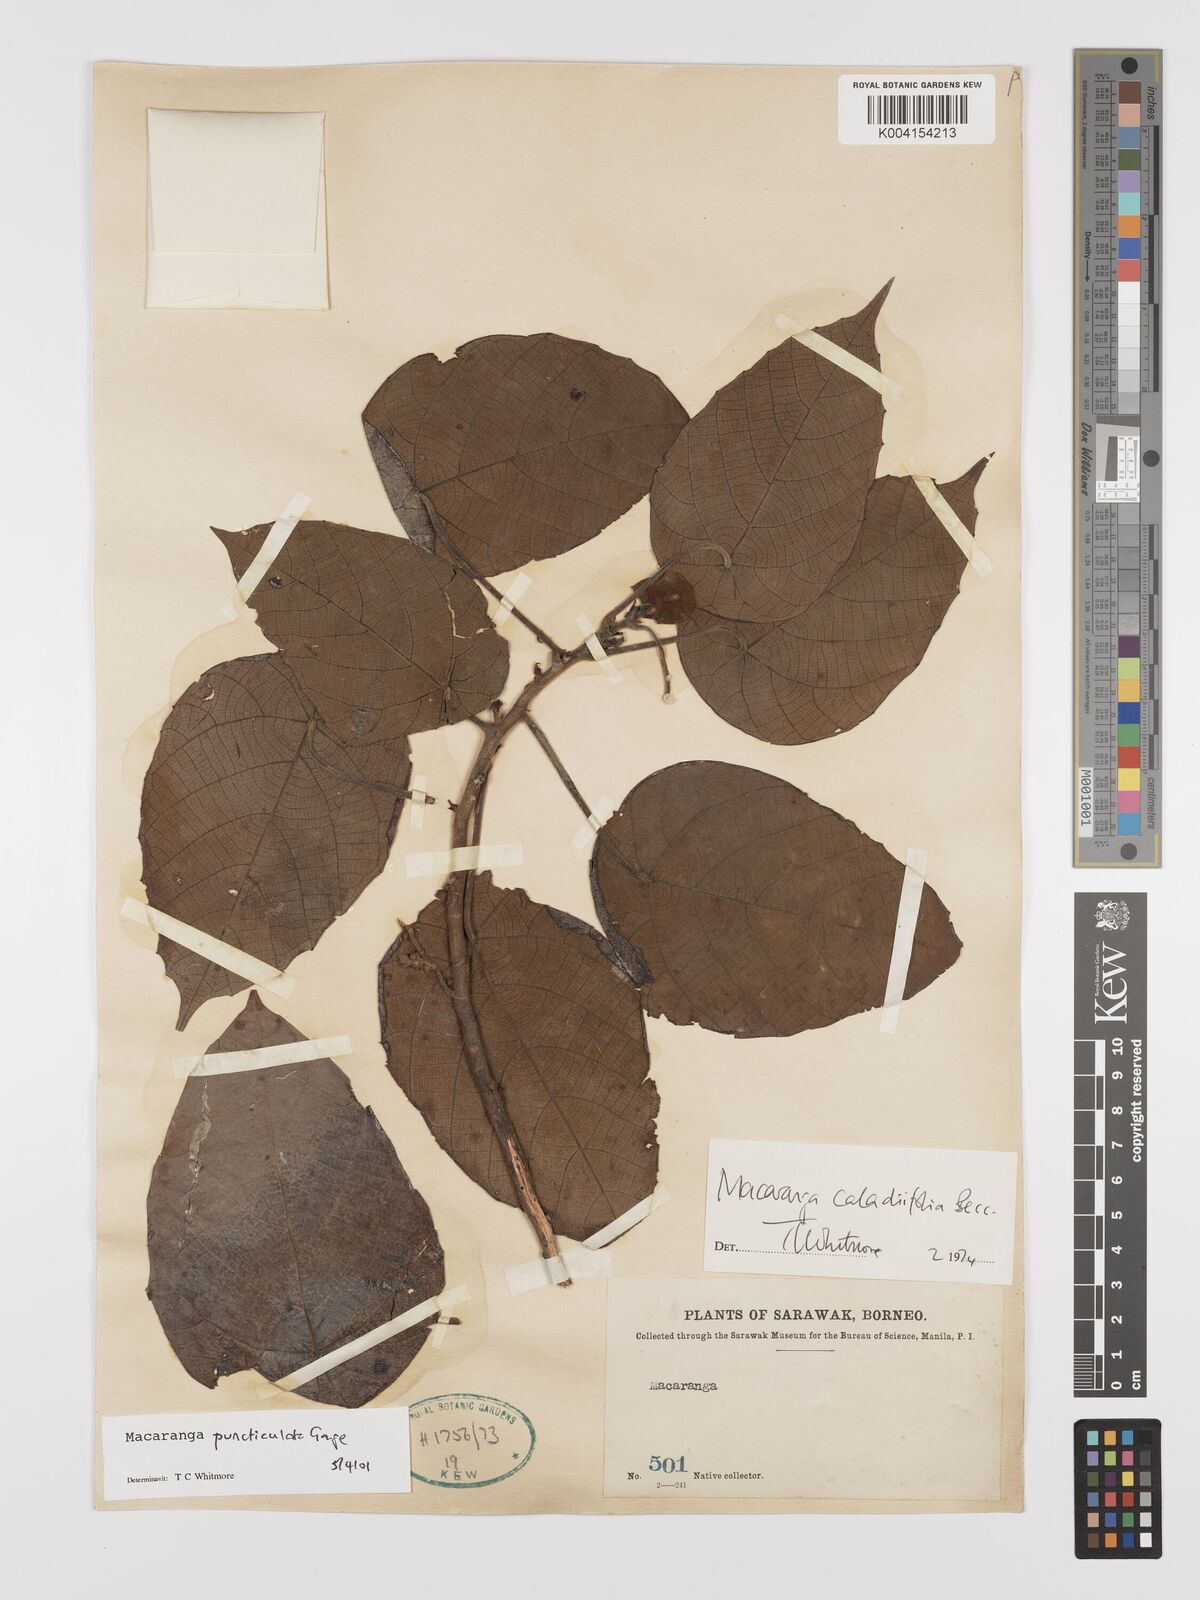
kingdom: Plantae
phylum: Tracheophyta
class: Magnoliopsida
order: Malpighiales
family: Euphorbiaceae
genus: Macaranga
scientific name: Macaranga puncticulata
